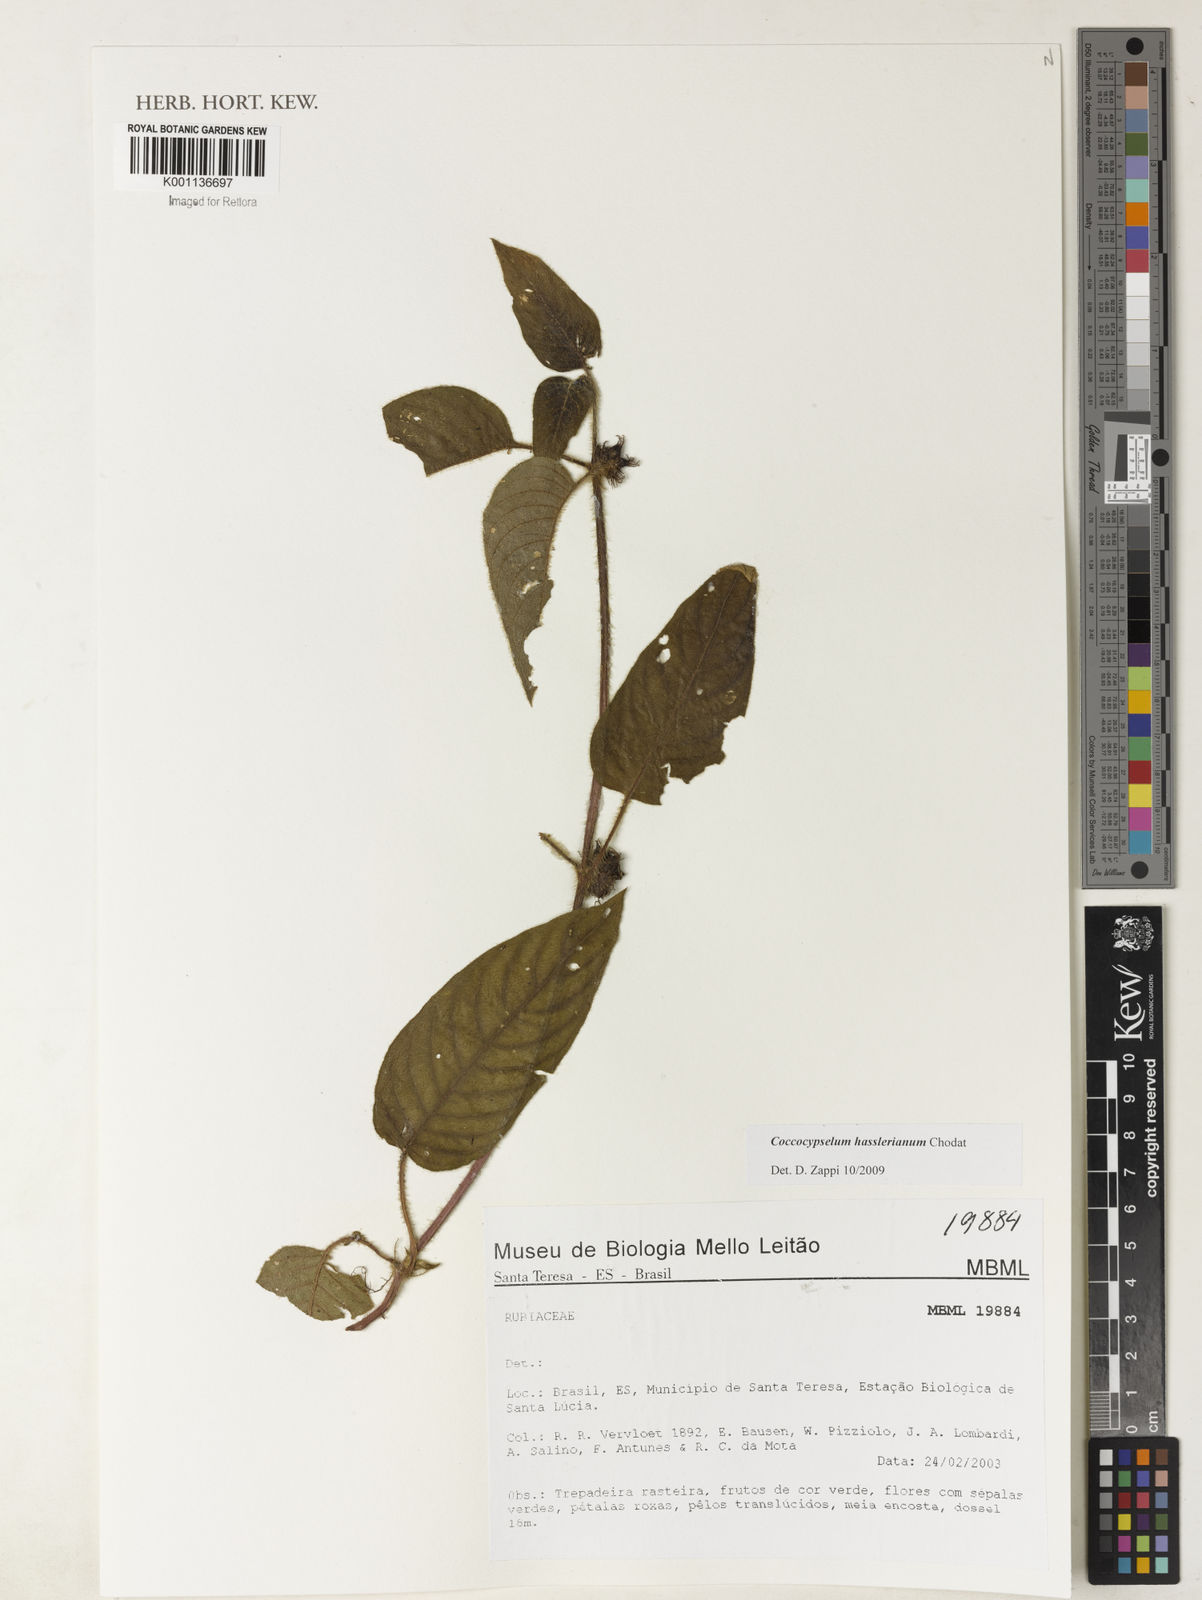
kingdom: Plantae
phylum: Tracheophyta
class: Magnoliopsida
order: Gentianales
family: Rubiaceae
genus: Coccocypselum
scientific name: Coccocypselum hasslerianum
